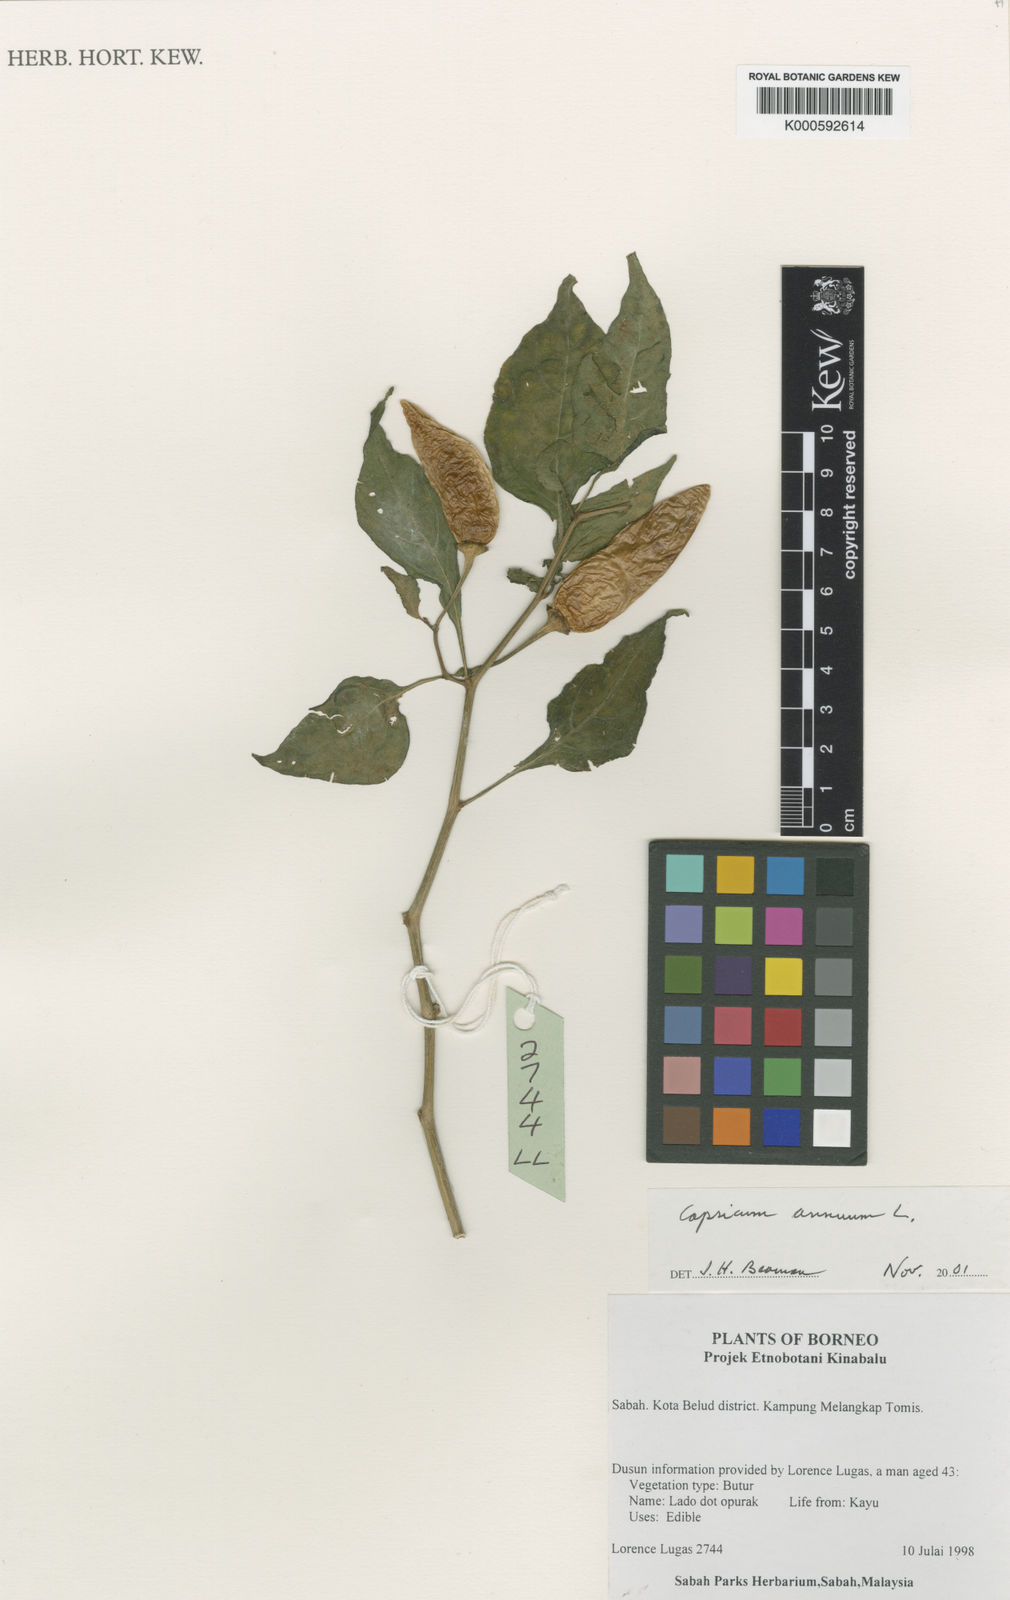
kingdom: Plantae
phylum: Tracheophyta
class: Magnoliopsida
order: Solanales
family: Solanaceae
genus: Capsicum
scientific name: Capsicum annuum
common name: Sweet pepper
